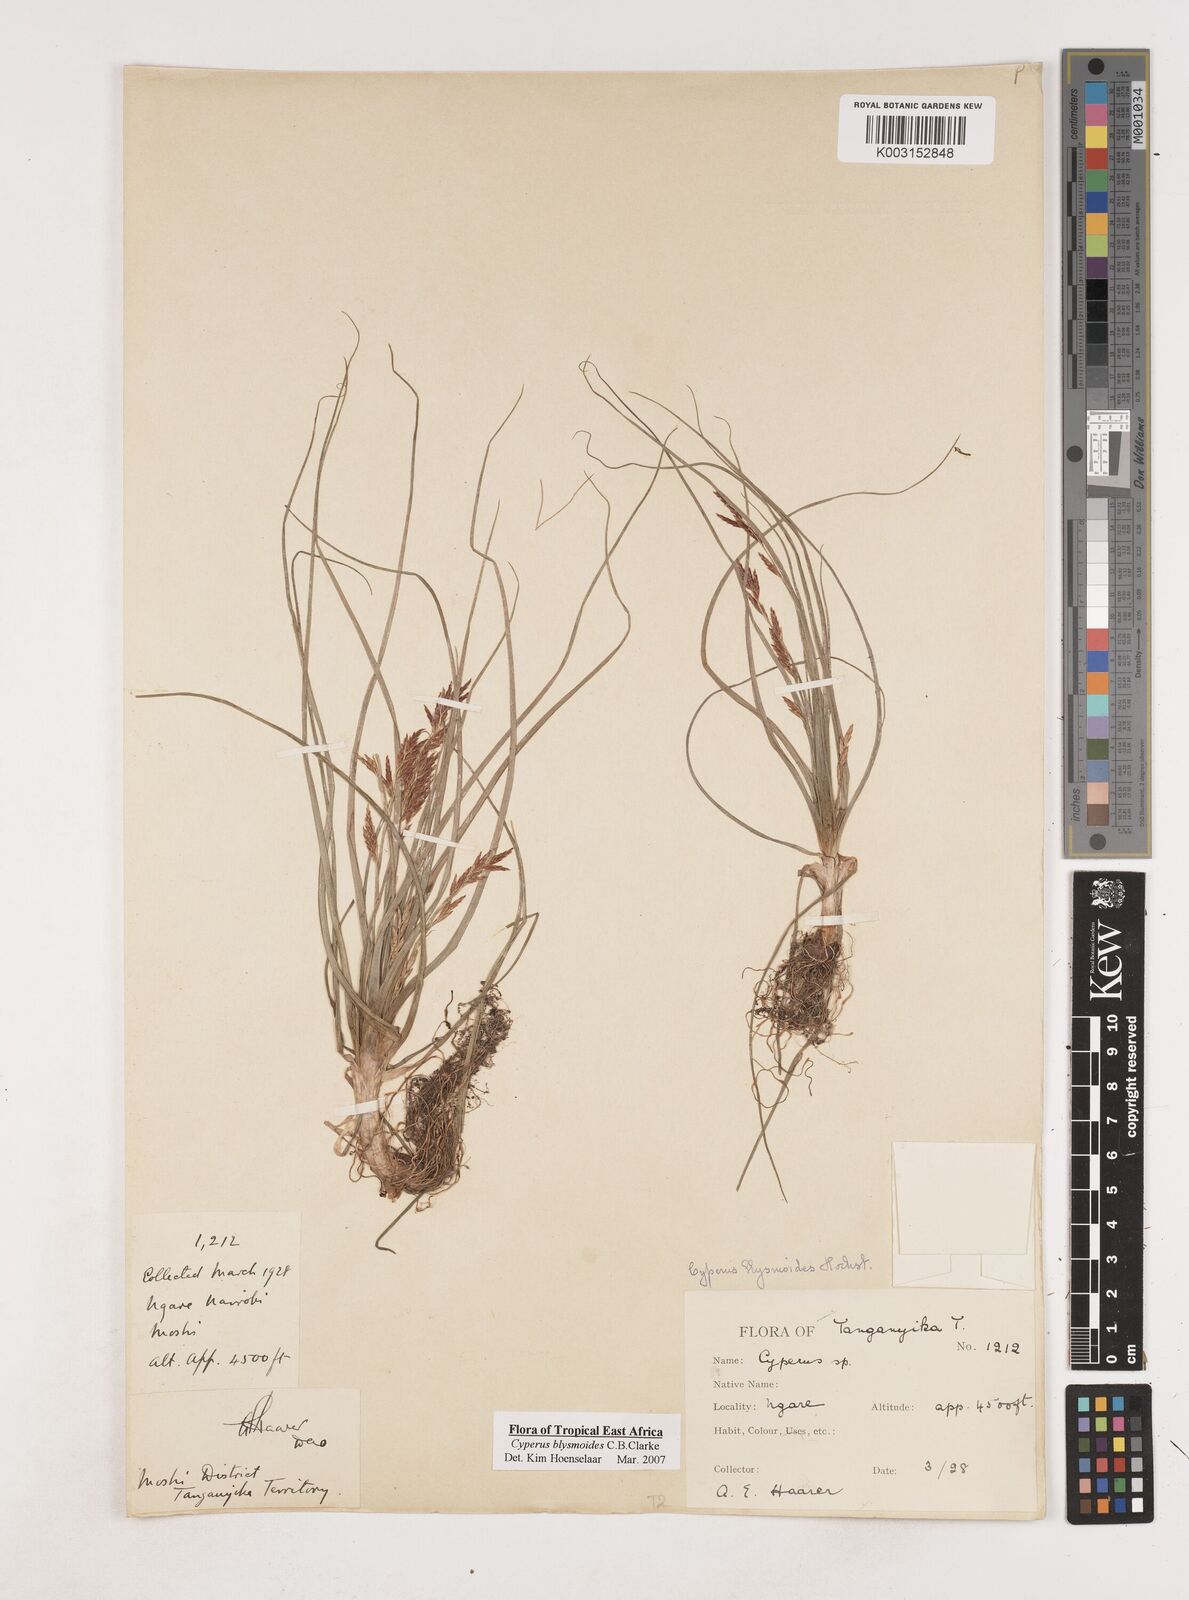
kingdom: Plantae
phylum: Tracheophyta
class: Liliopsida
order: Poales
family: Cyperaceae
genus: Cyperus
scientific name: Cyperus blysmoides
